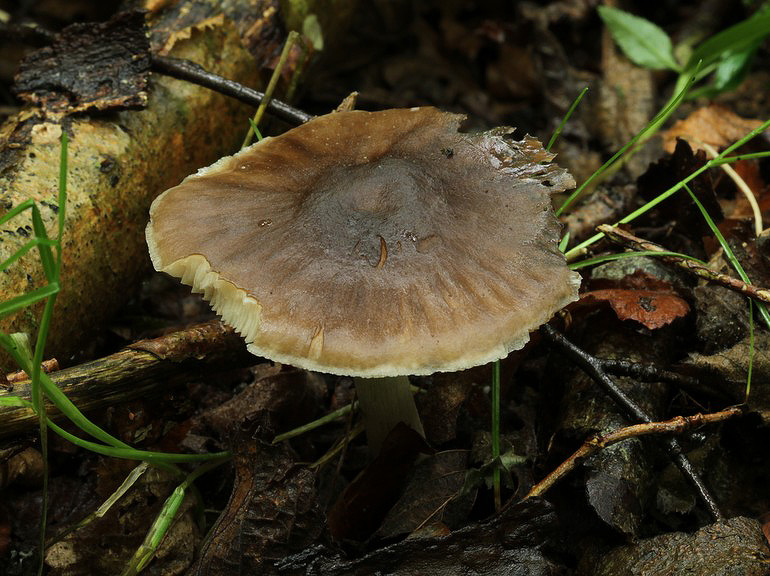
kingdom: Fungi
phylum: Basidiomycota
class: Agaricomycetes
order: Agaricales
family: Pluteaceae
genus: Pluteus
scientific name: Pluteus cervinus
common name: sodfarvet skærmhat
